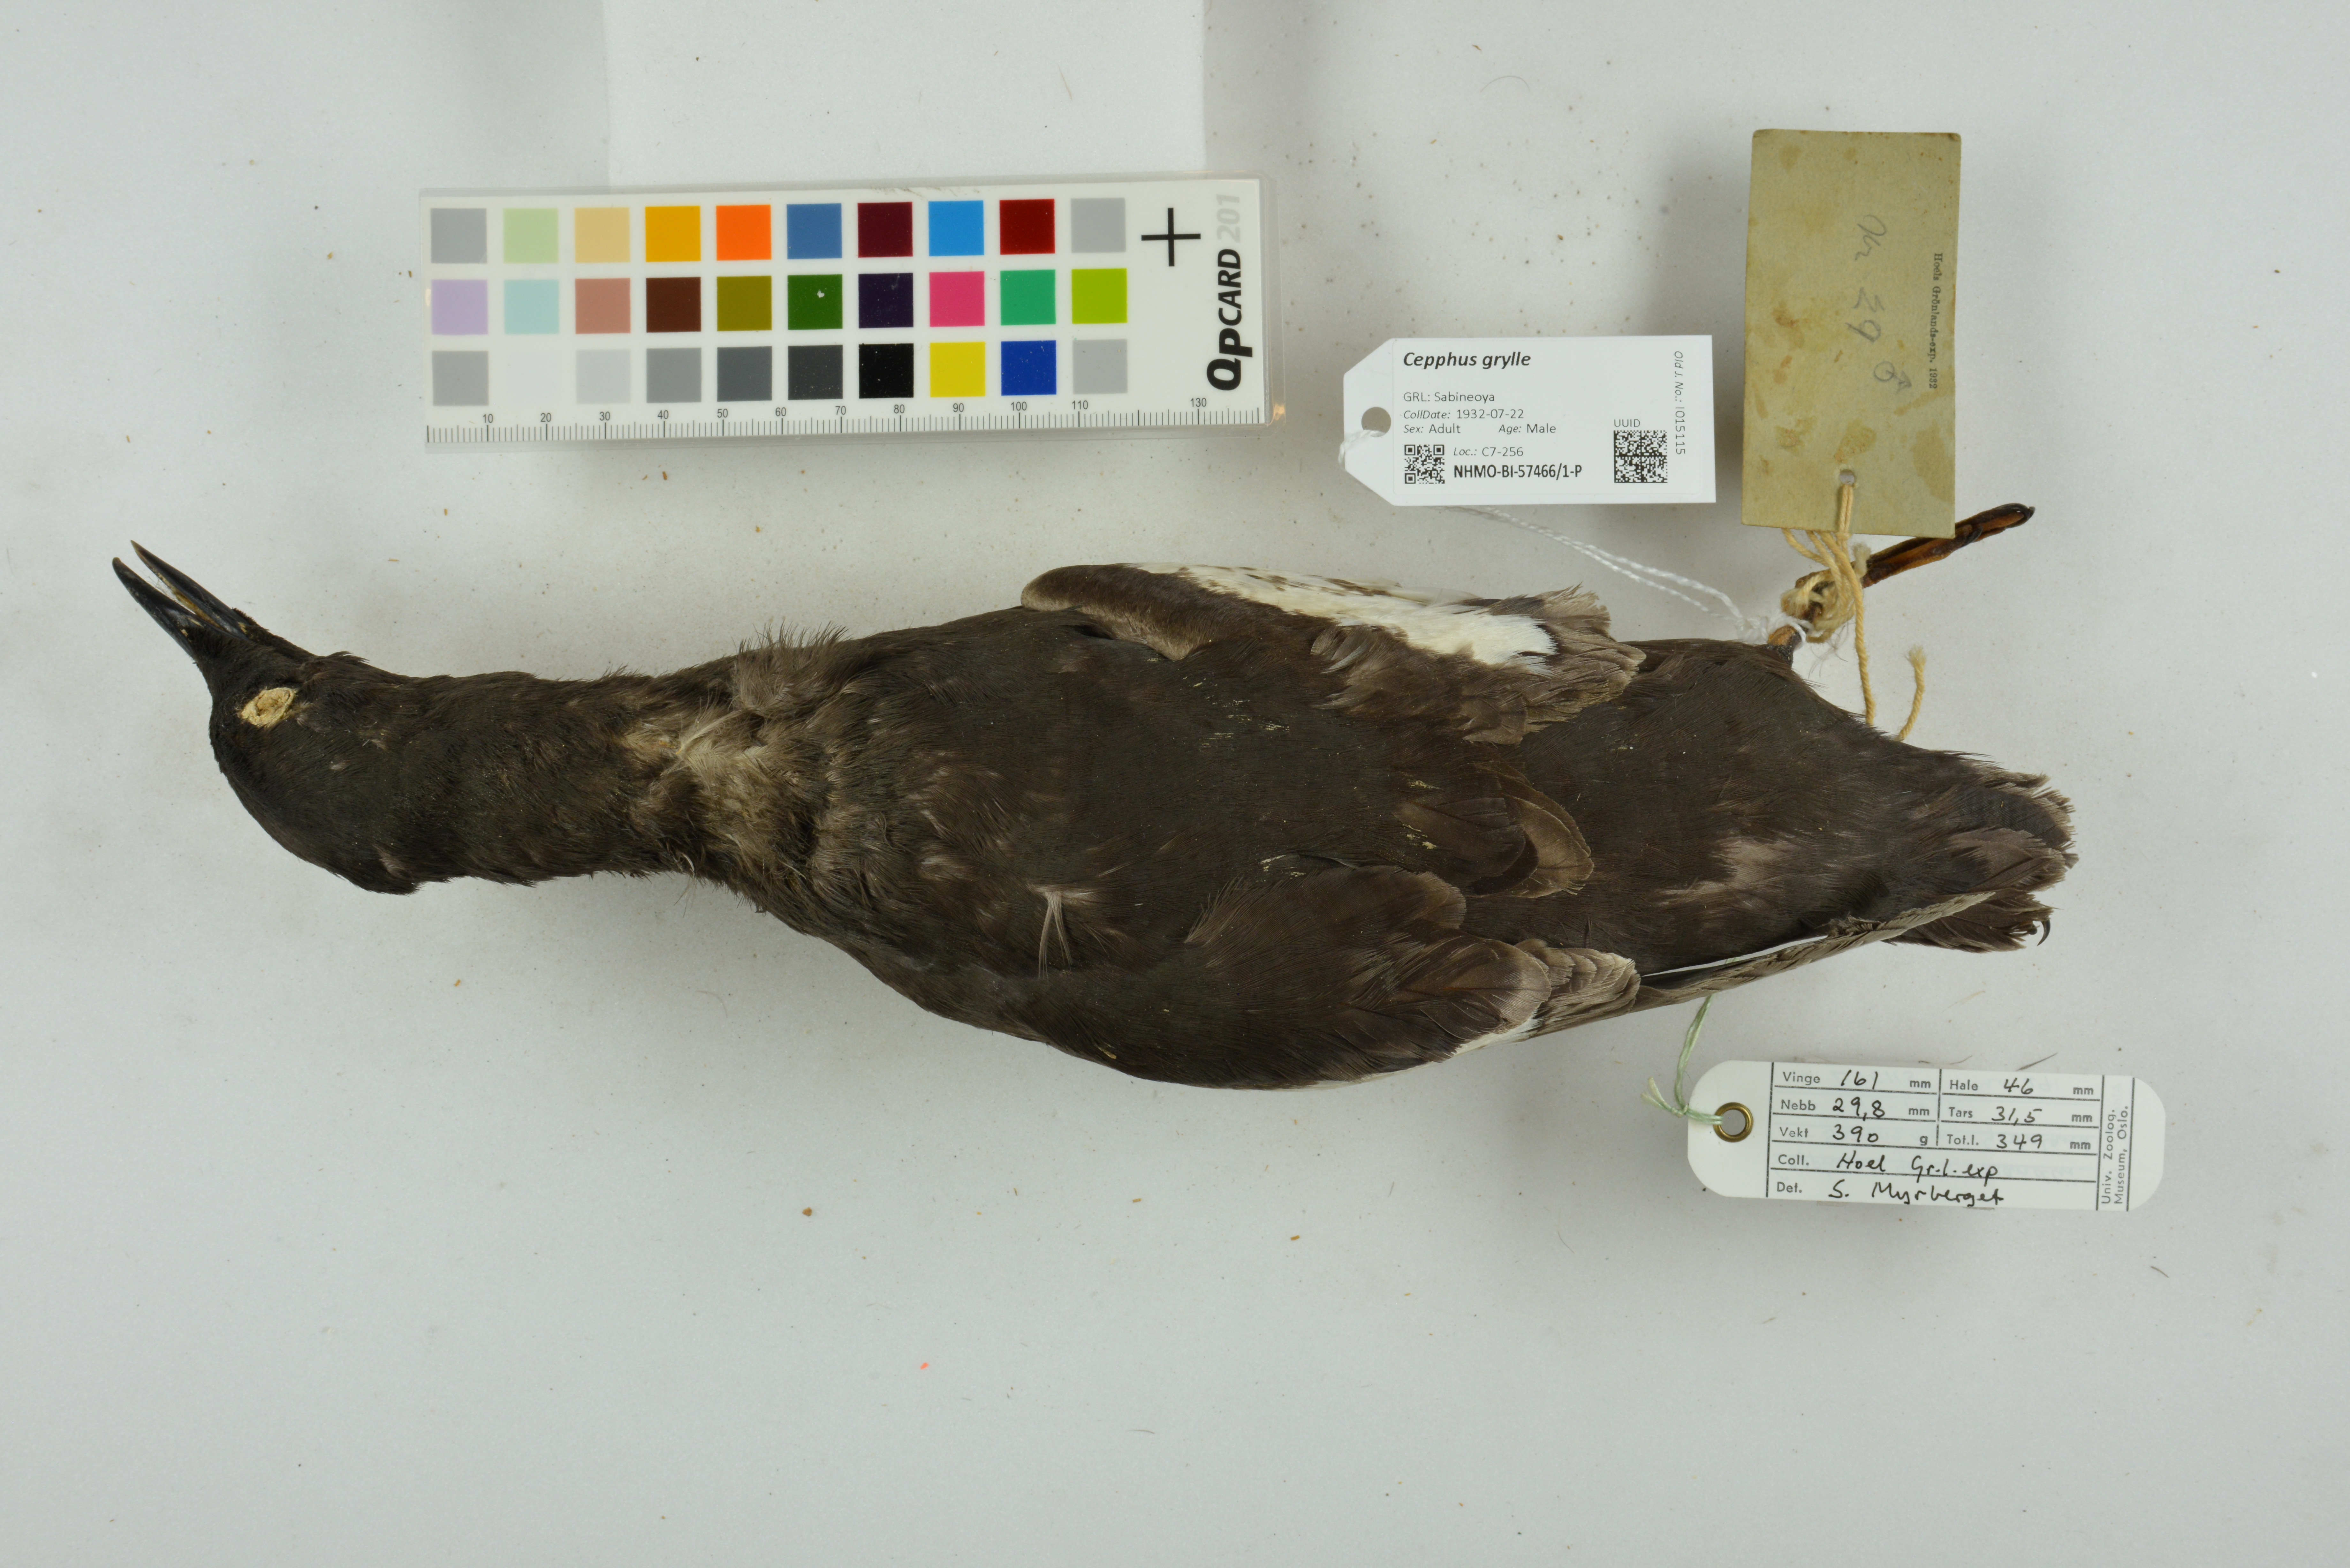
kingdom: Animalia
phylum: Chordata
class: Aves
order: Charadriiformes
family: Alcidae
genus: Cepphus
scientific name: Cepphus grylle
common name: Black guillemot
